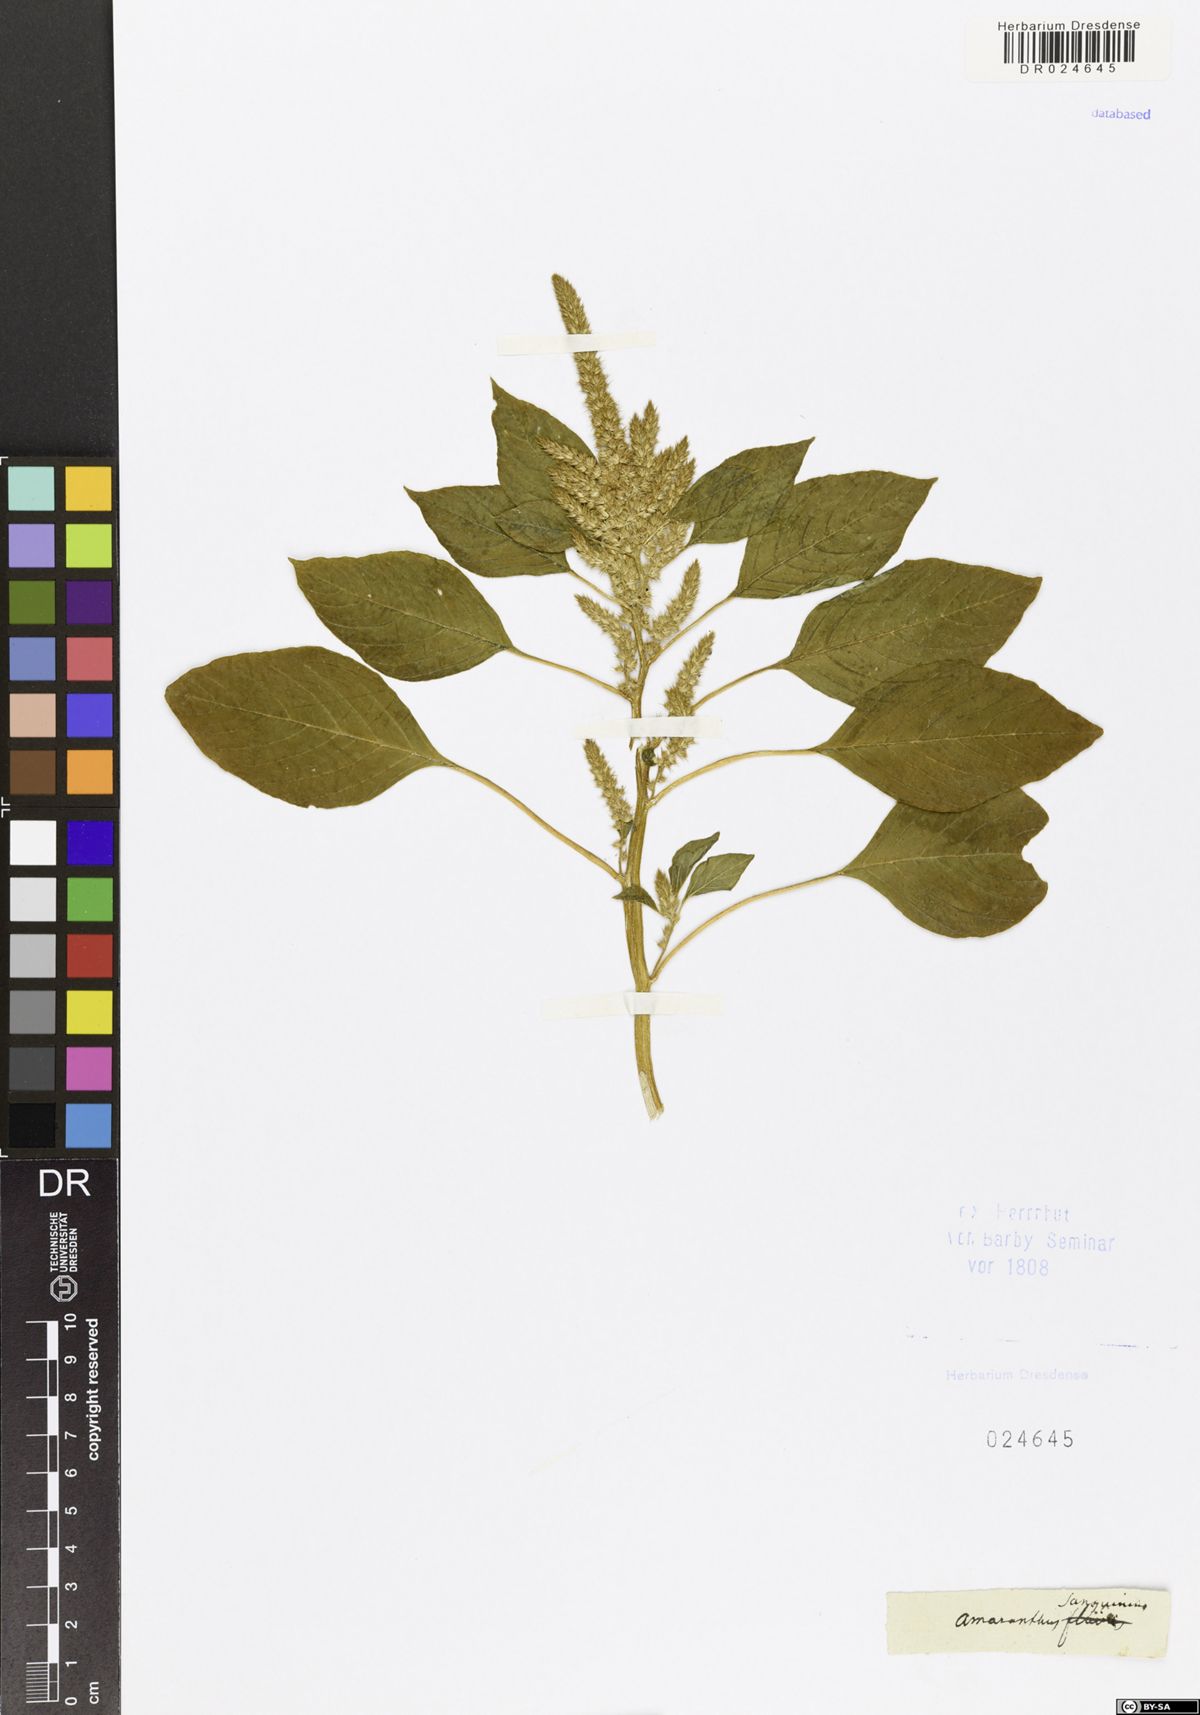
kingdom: Plantae
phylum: Tracheophyta
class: Magnoliopsida
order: Caryophyllales
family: Amaranthaceae
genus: Amaranthus
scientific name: Amaranthus cruentus
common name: Purple amaranth
